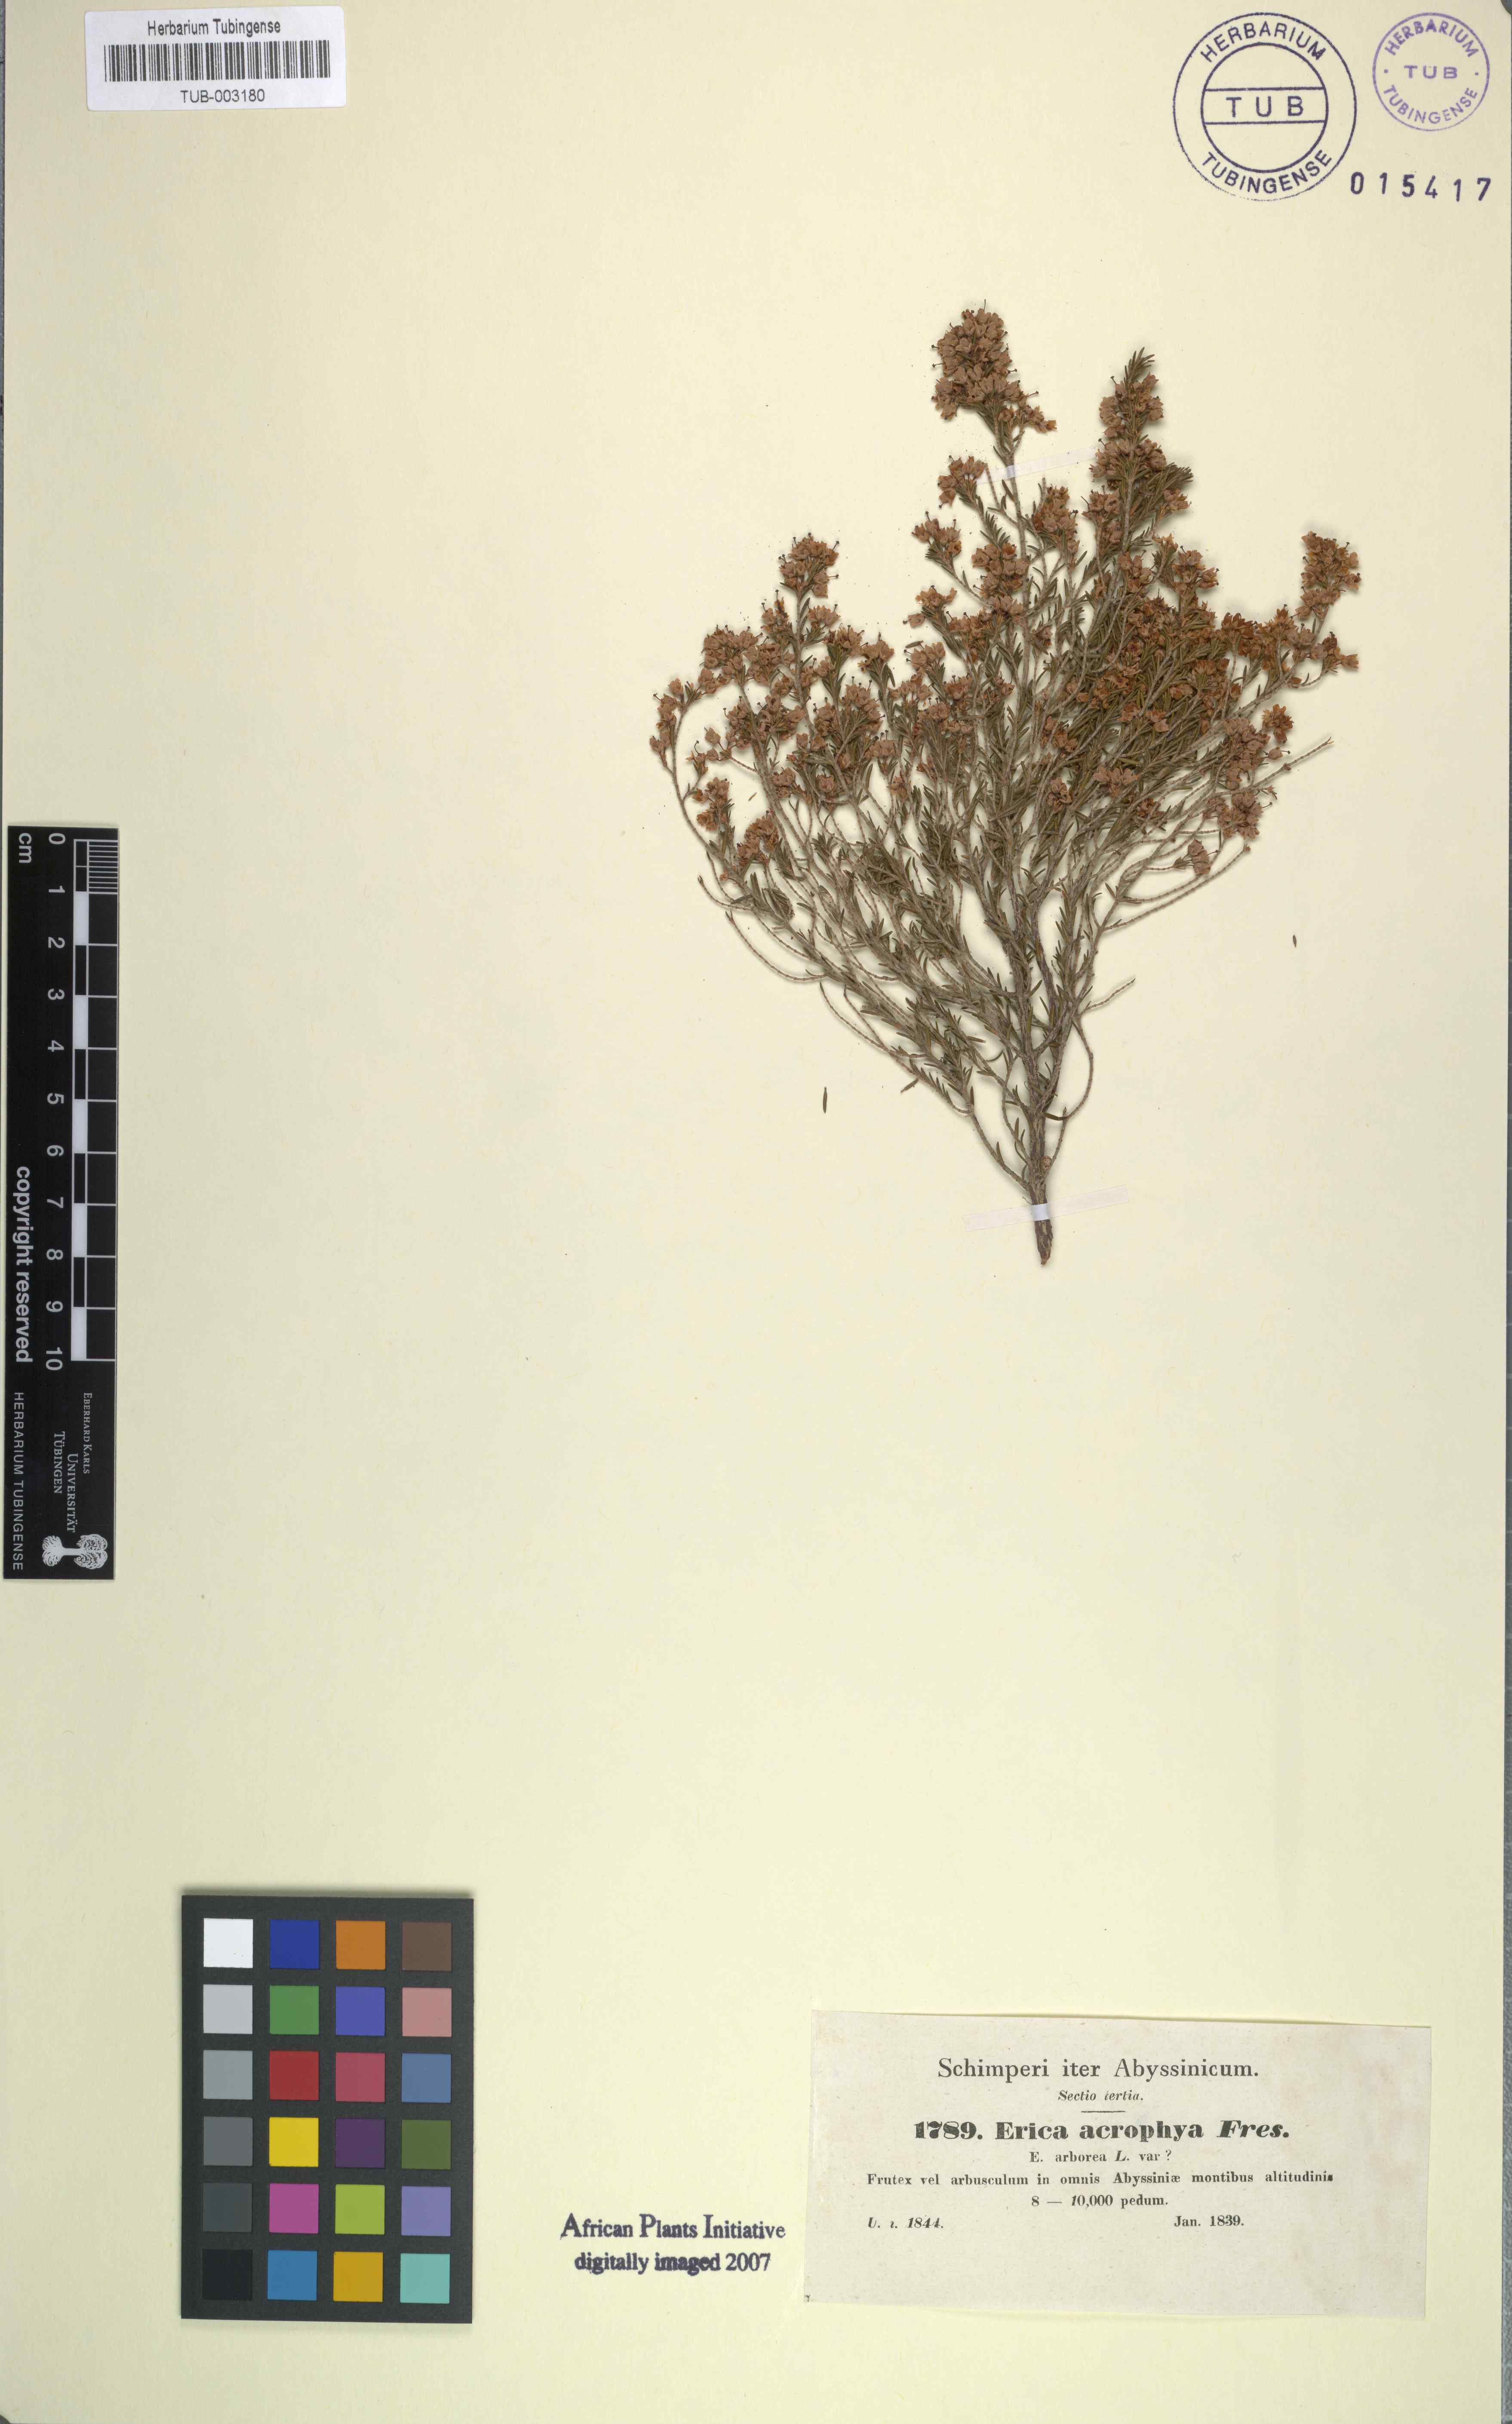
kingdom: Plantae
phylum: Tracheophyta
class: Magnoliopsida
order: Ericales
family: Ericaceae
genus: Erica
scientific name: Erica arborea
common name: Tree heath
